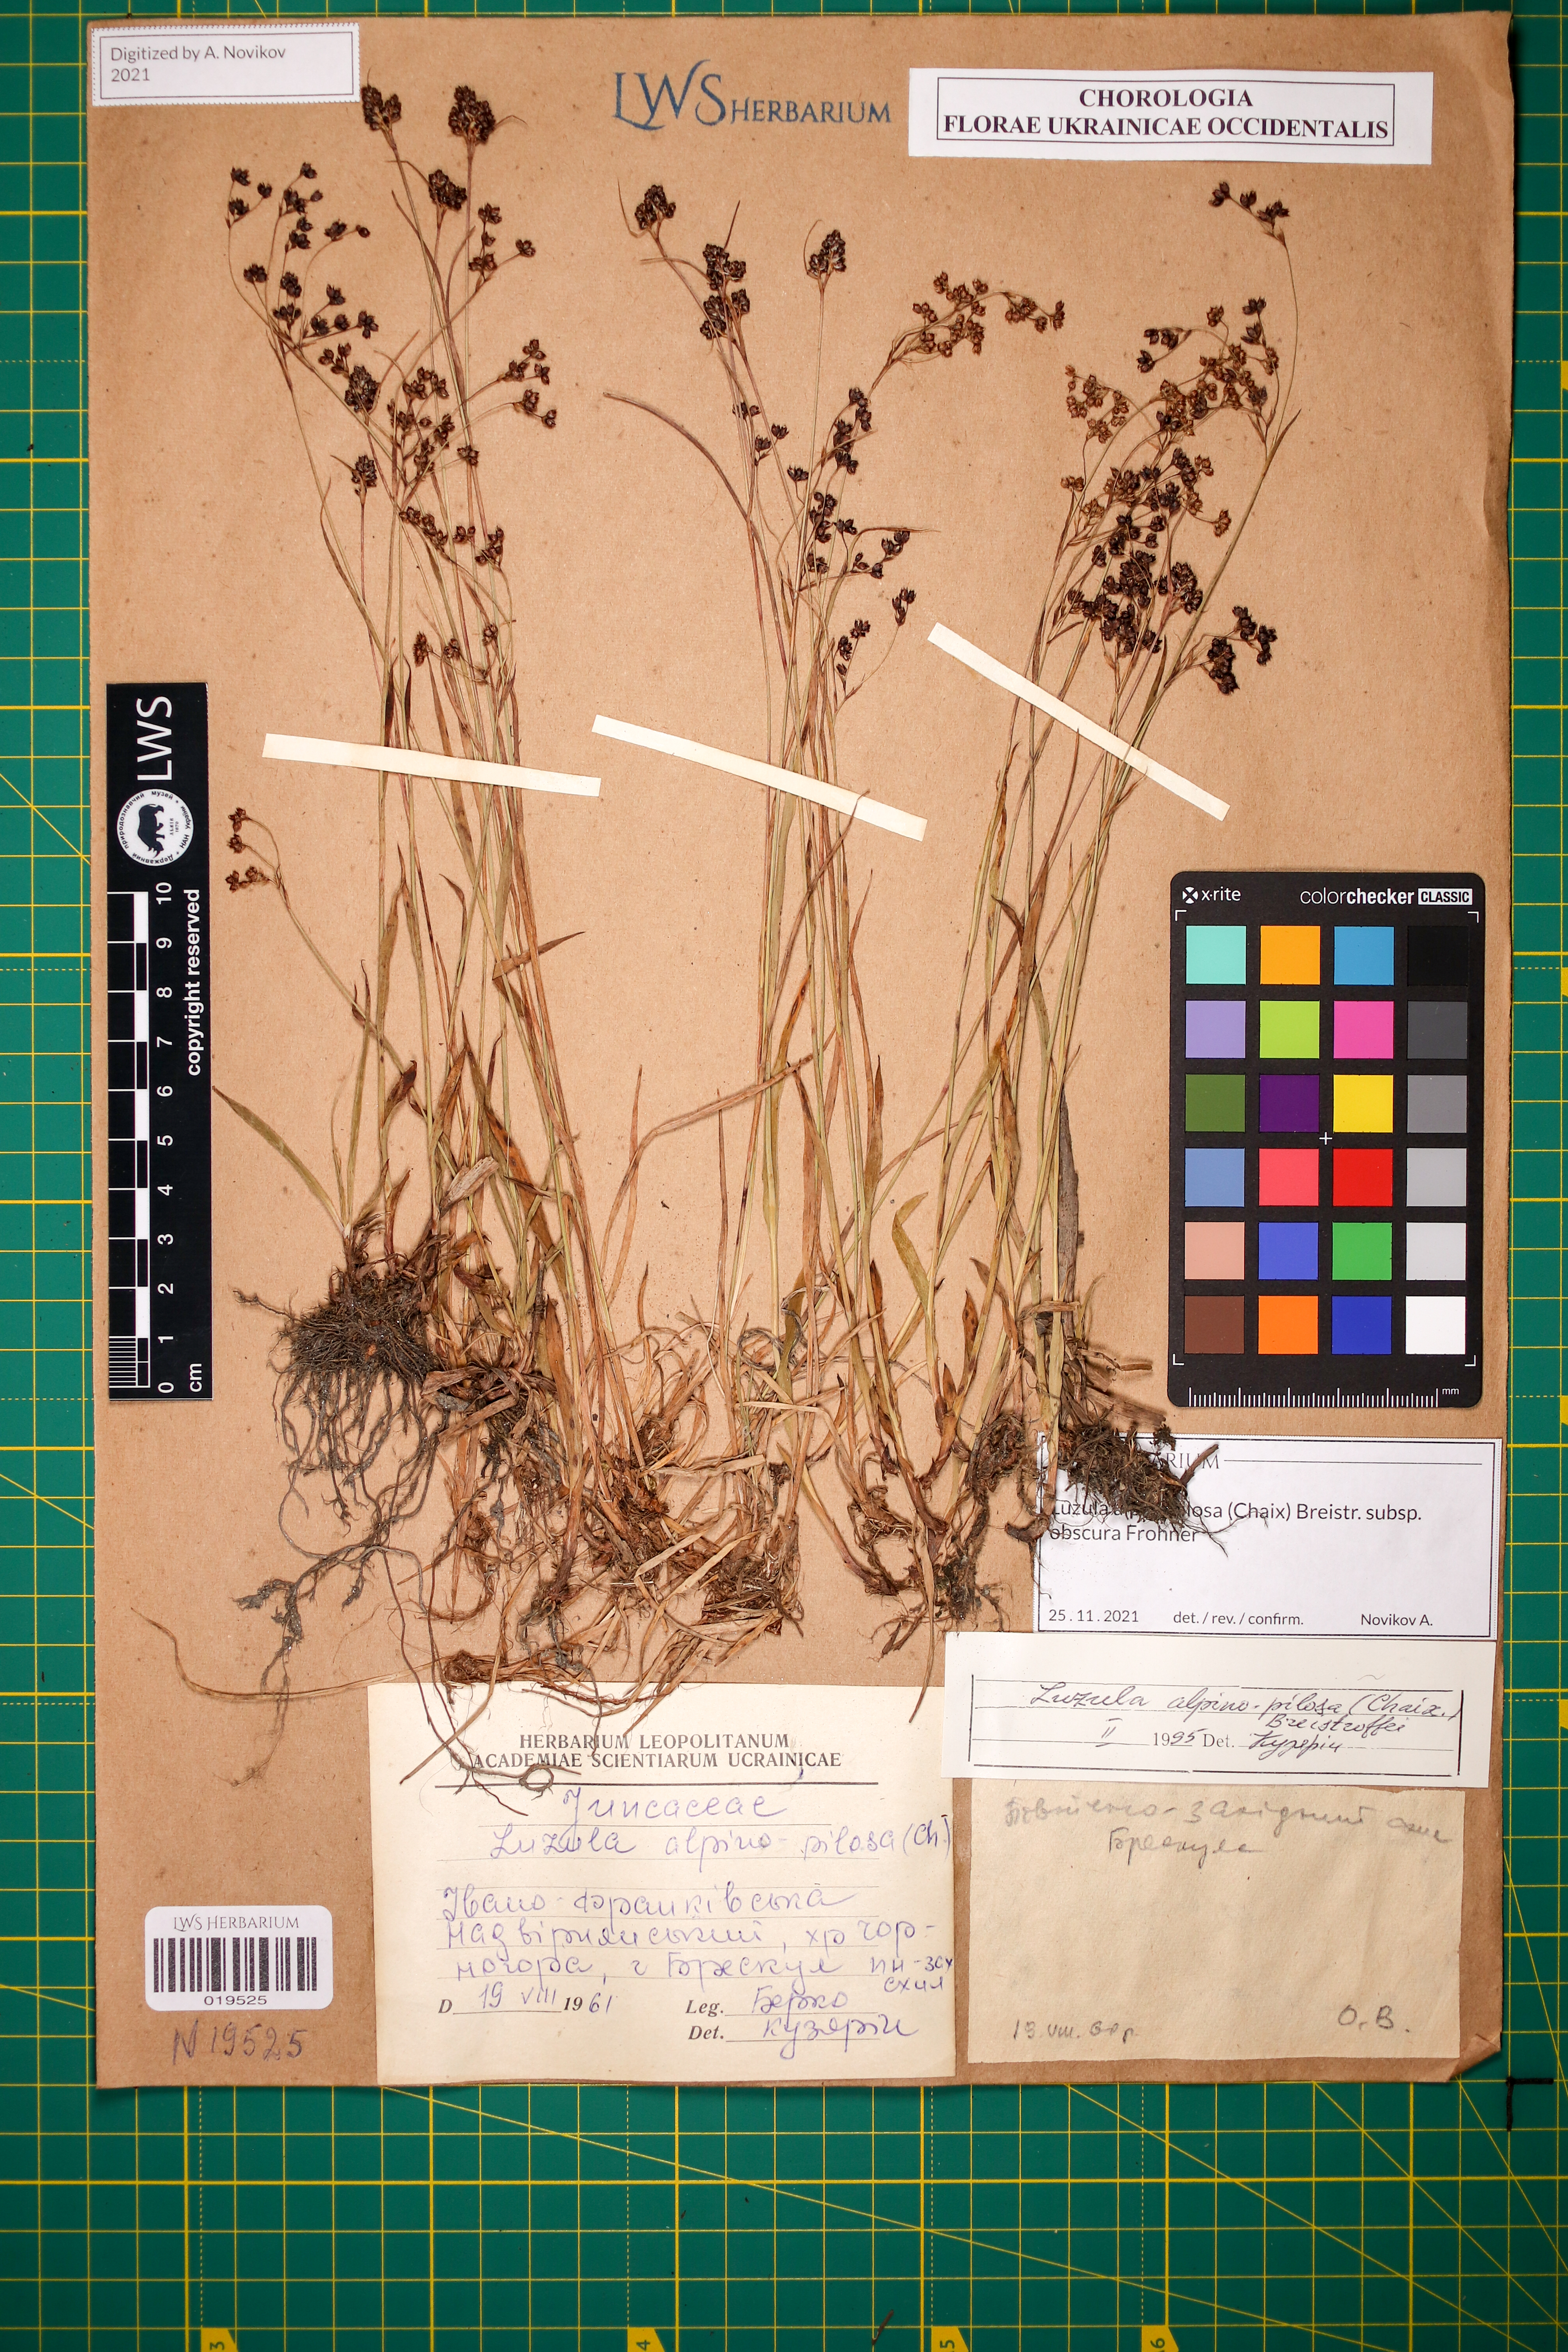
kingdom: Plantae
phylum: Tracheophyta
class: Liliopsida
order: Poales
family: Juncaceae
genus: Luzula
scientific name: Luzula alpinopilosa
